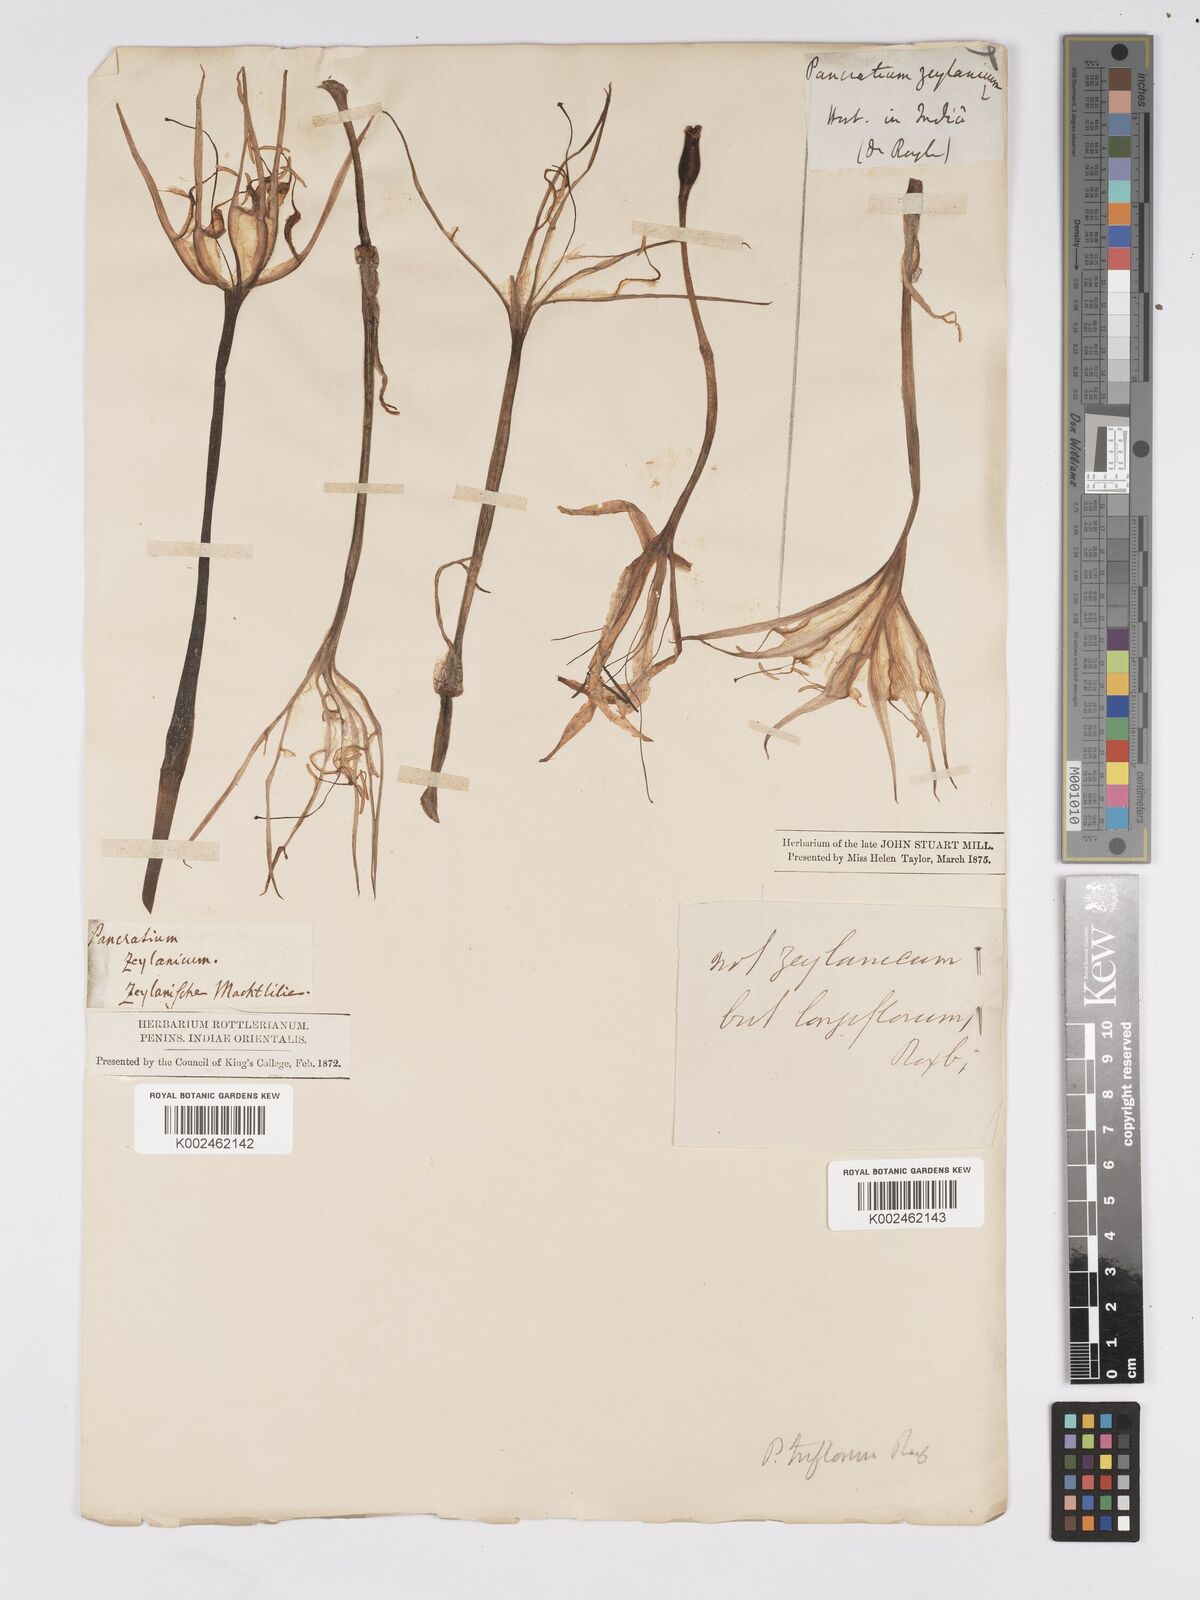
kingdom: Plantae
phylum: Tracheophyta
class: Liliopsida
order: Asparagales
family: Amaryllidaceae
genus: Pancratium
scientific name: Pancratium longiflorum
